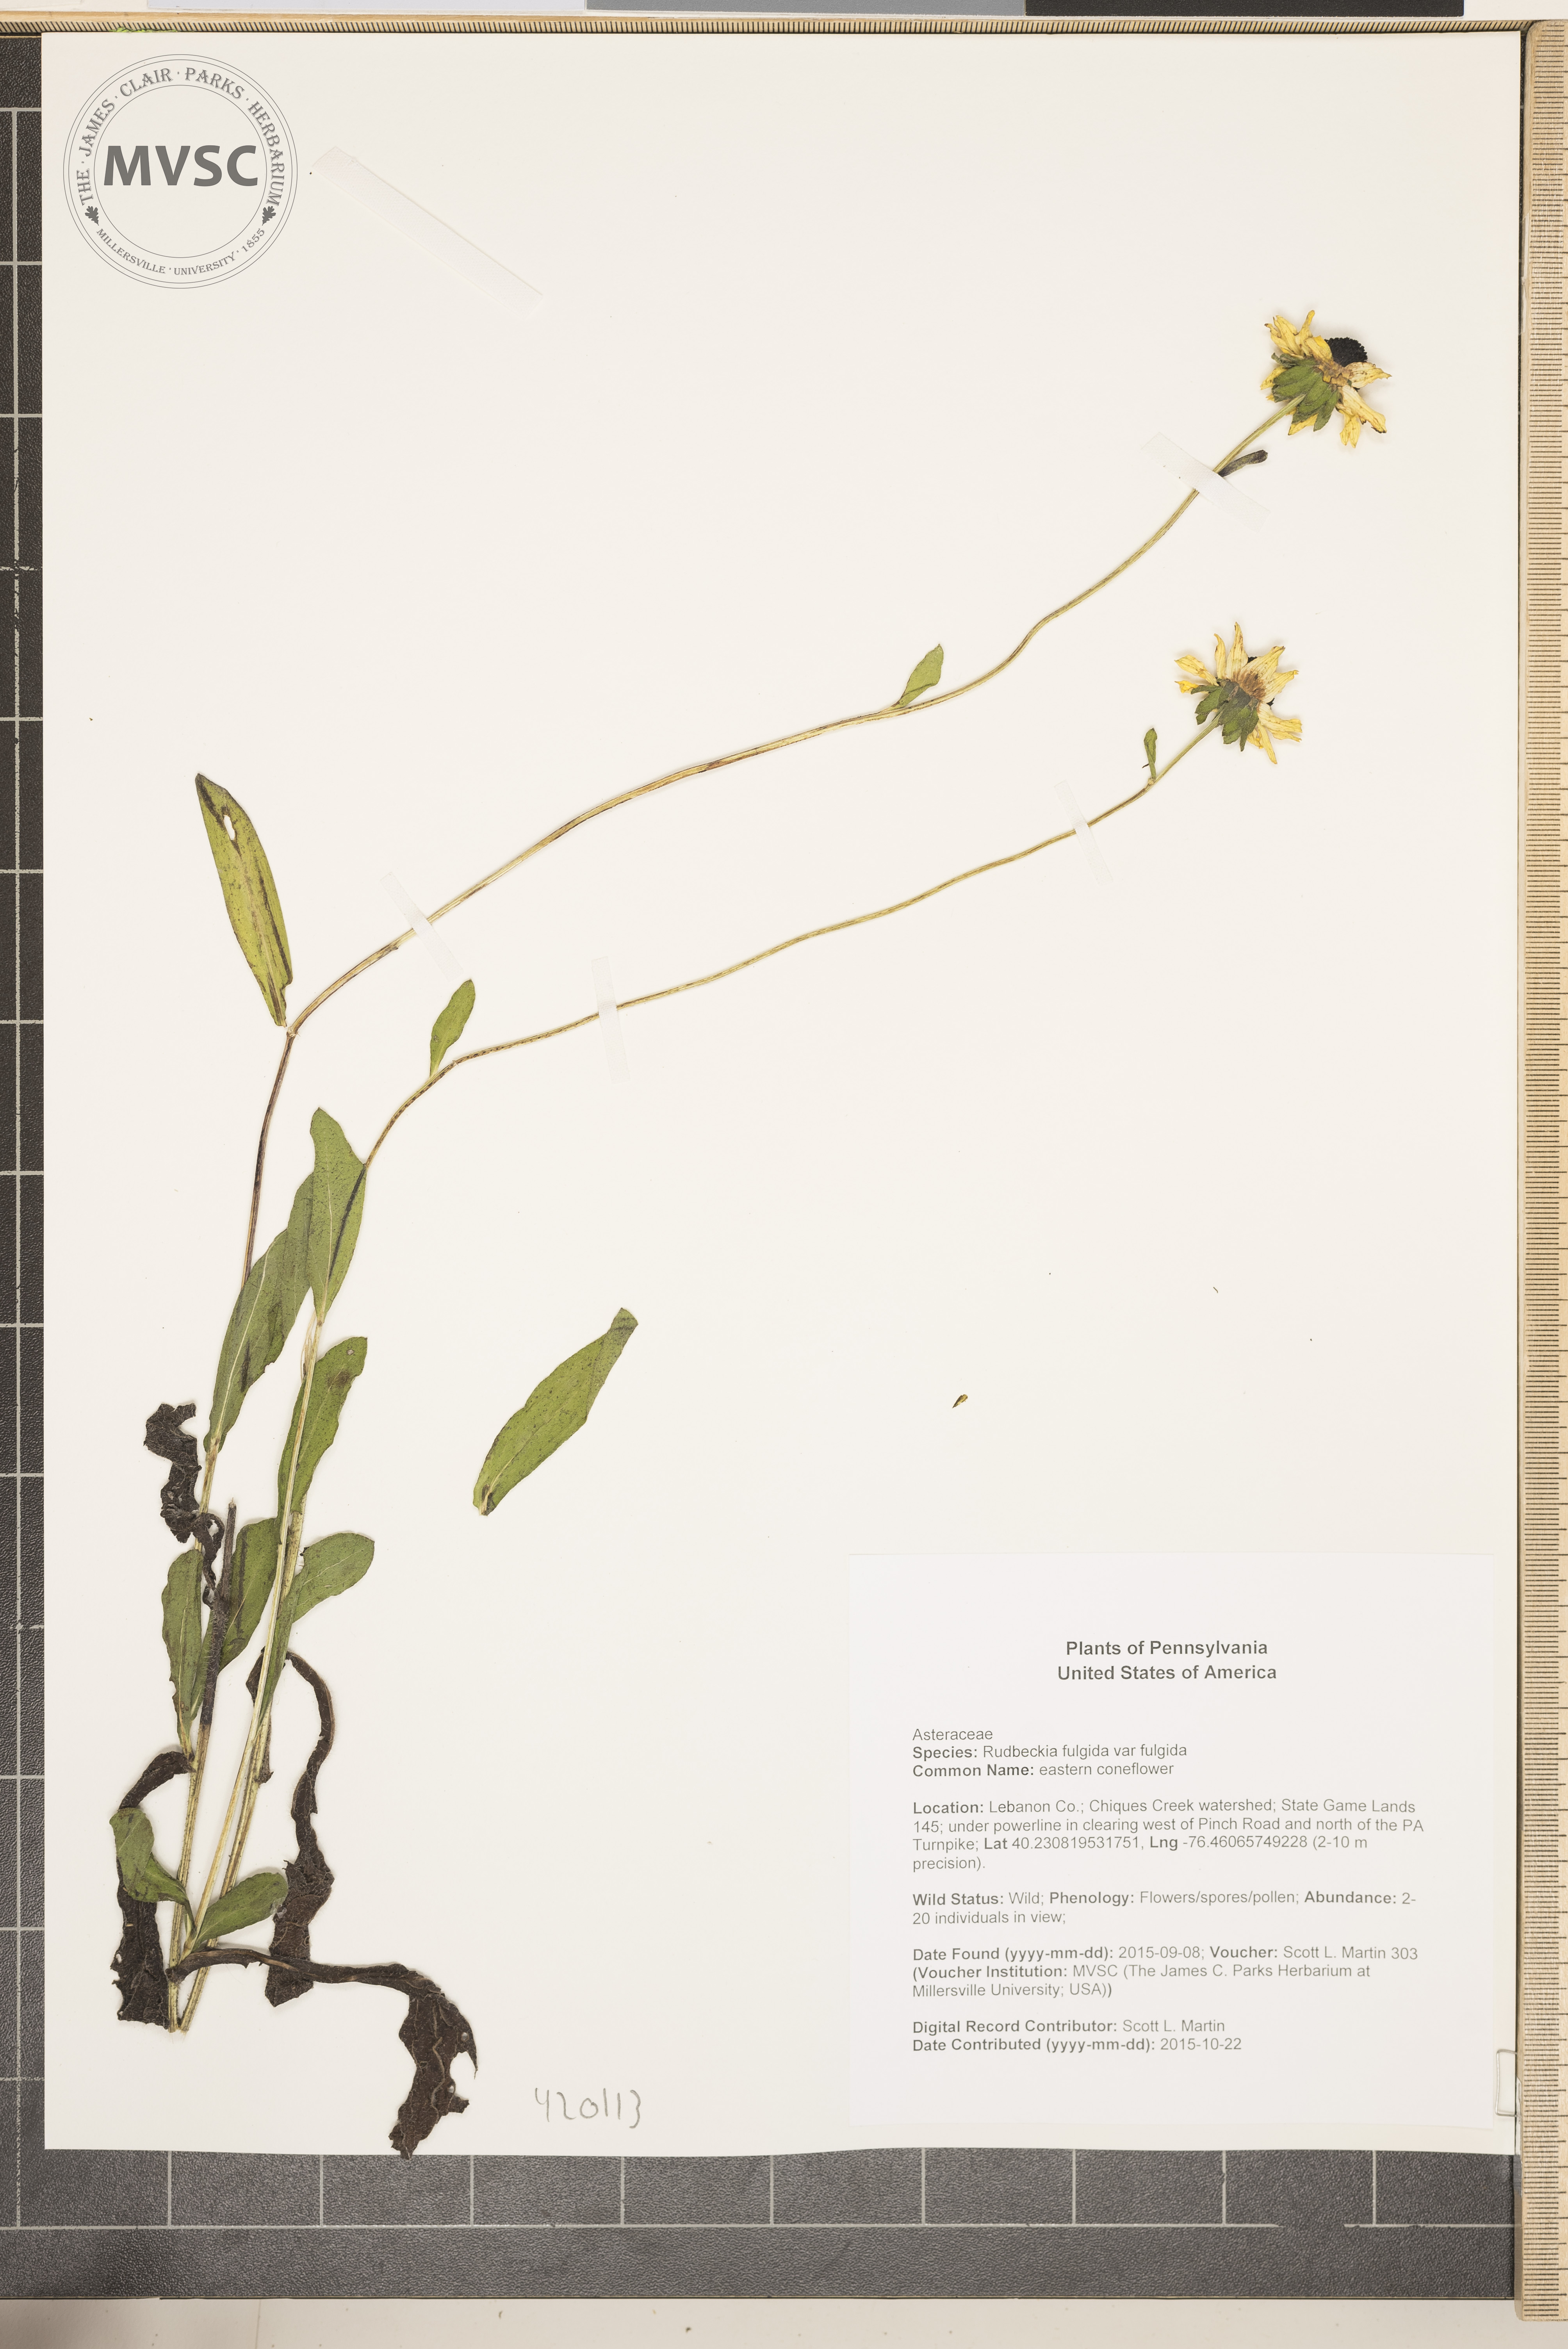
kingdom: Plantae
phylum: Tracheophyta
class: Magnoliopsida
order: Asterales
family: Asteraceae
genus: Rudbeckia
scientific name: Rudbeckia fulgida
